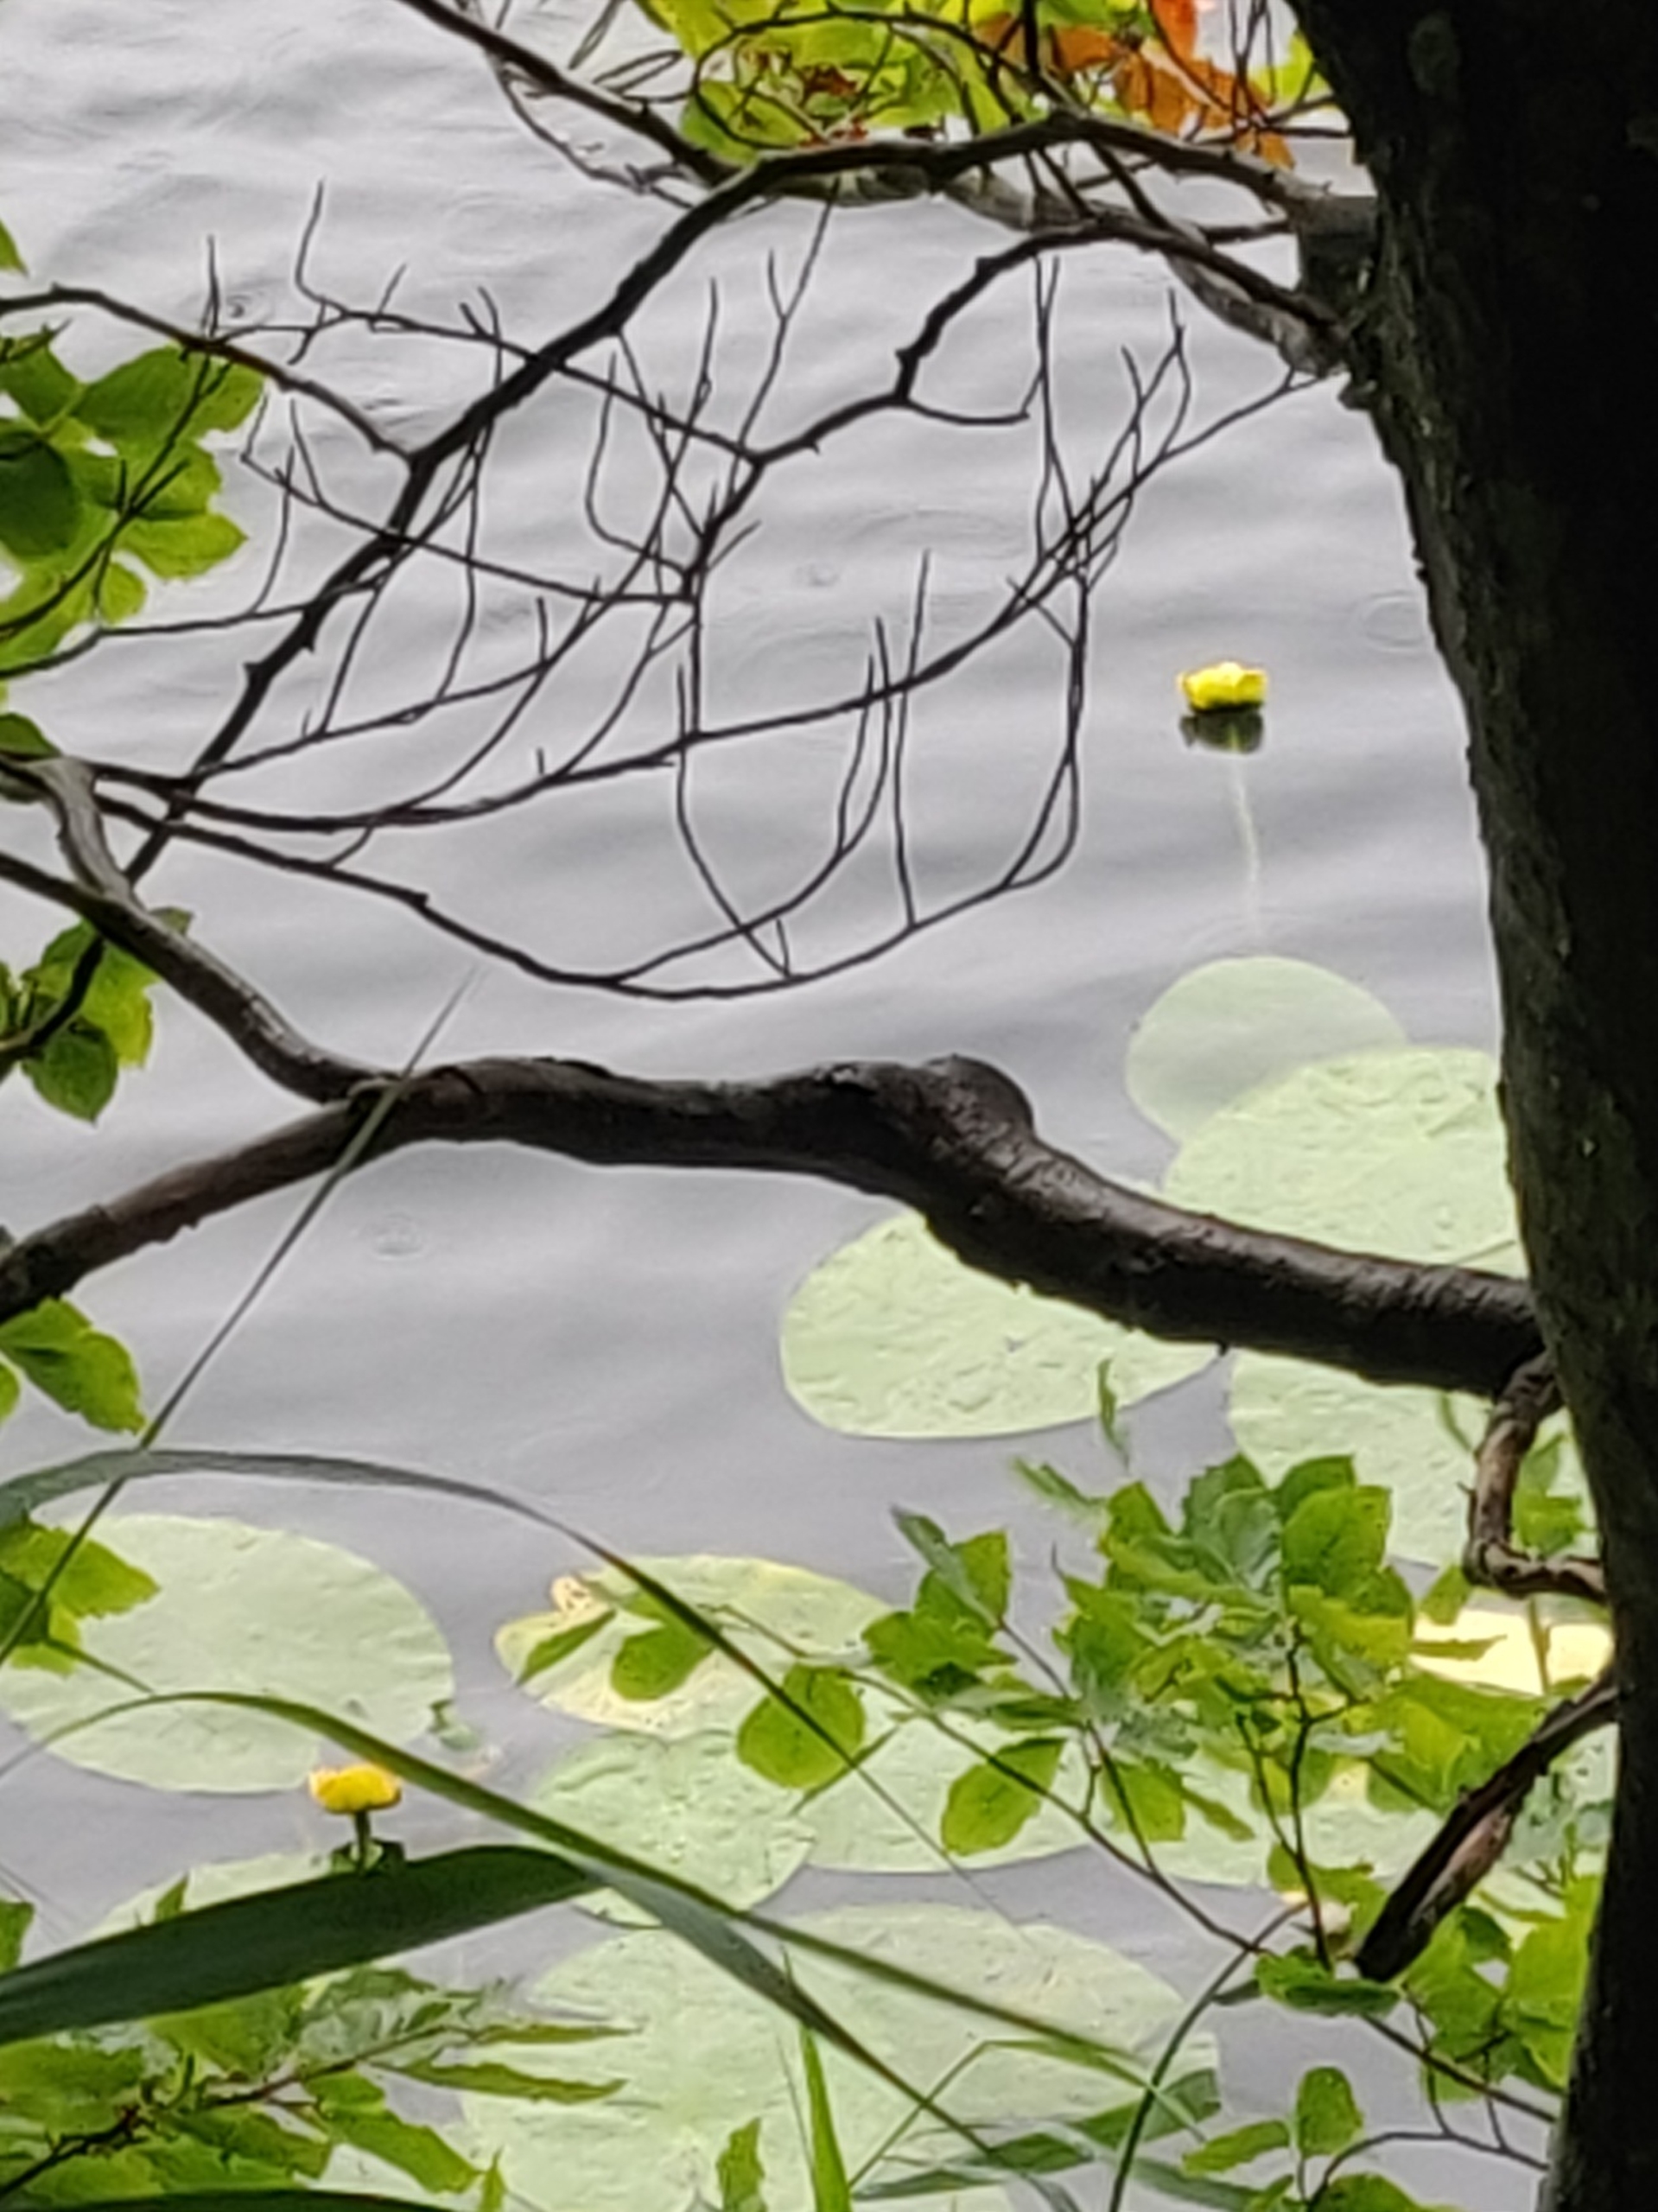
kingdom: Plantae
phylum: Tracheophyta
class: Magnoliopsida
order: Nymphaeales
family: Nymphaeaceae
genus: Nuphar
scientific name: Nuphar lutea
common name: Gul åkande
